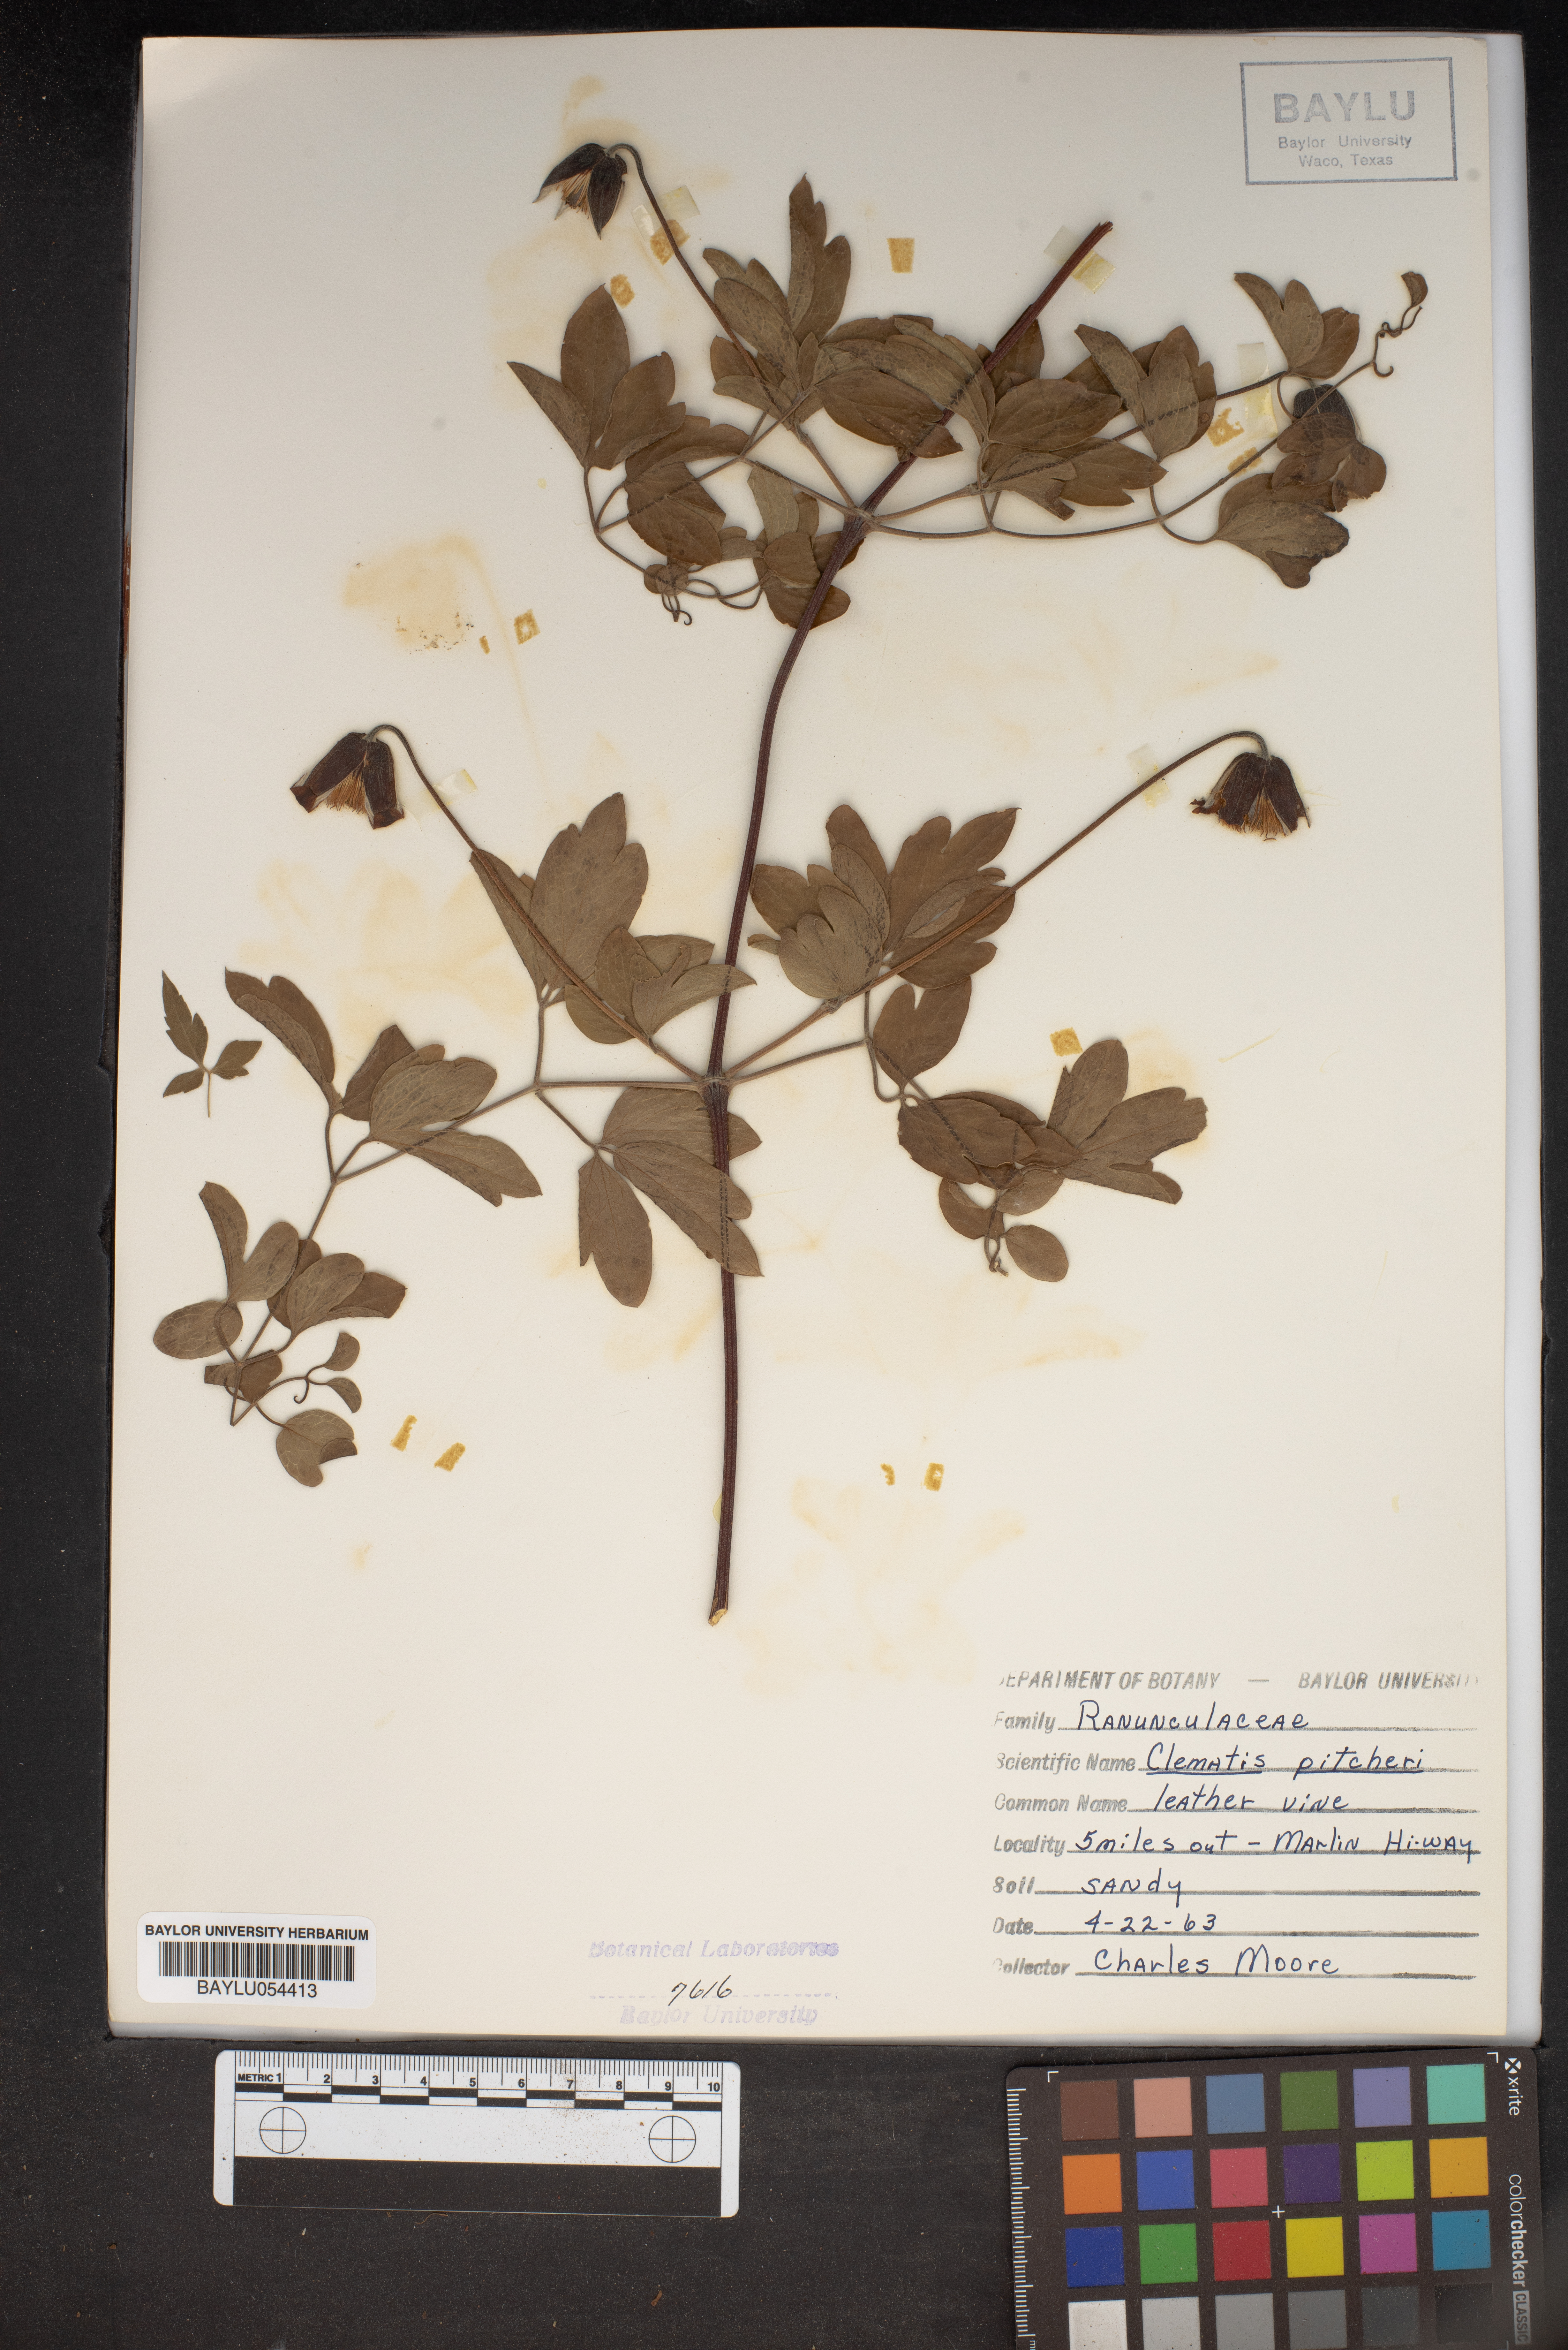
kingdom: Plantae
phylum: Tracheophyta
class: Magnoliopsida
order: Ranunculales
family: Ranunculaceae
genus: Clematis
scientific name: Clematis pitcheri
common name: Bellflower clematis
